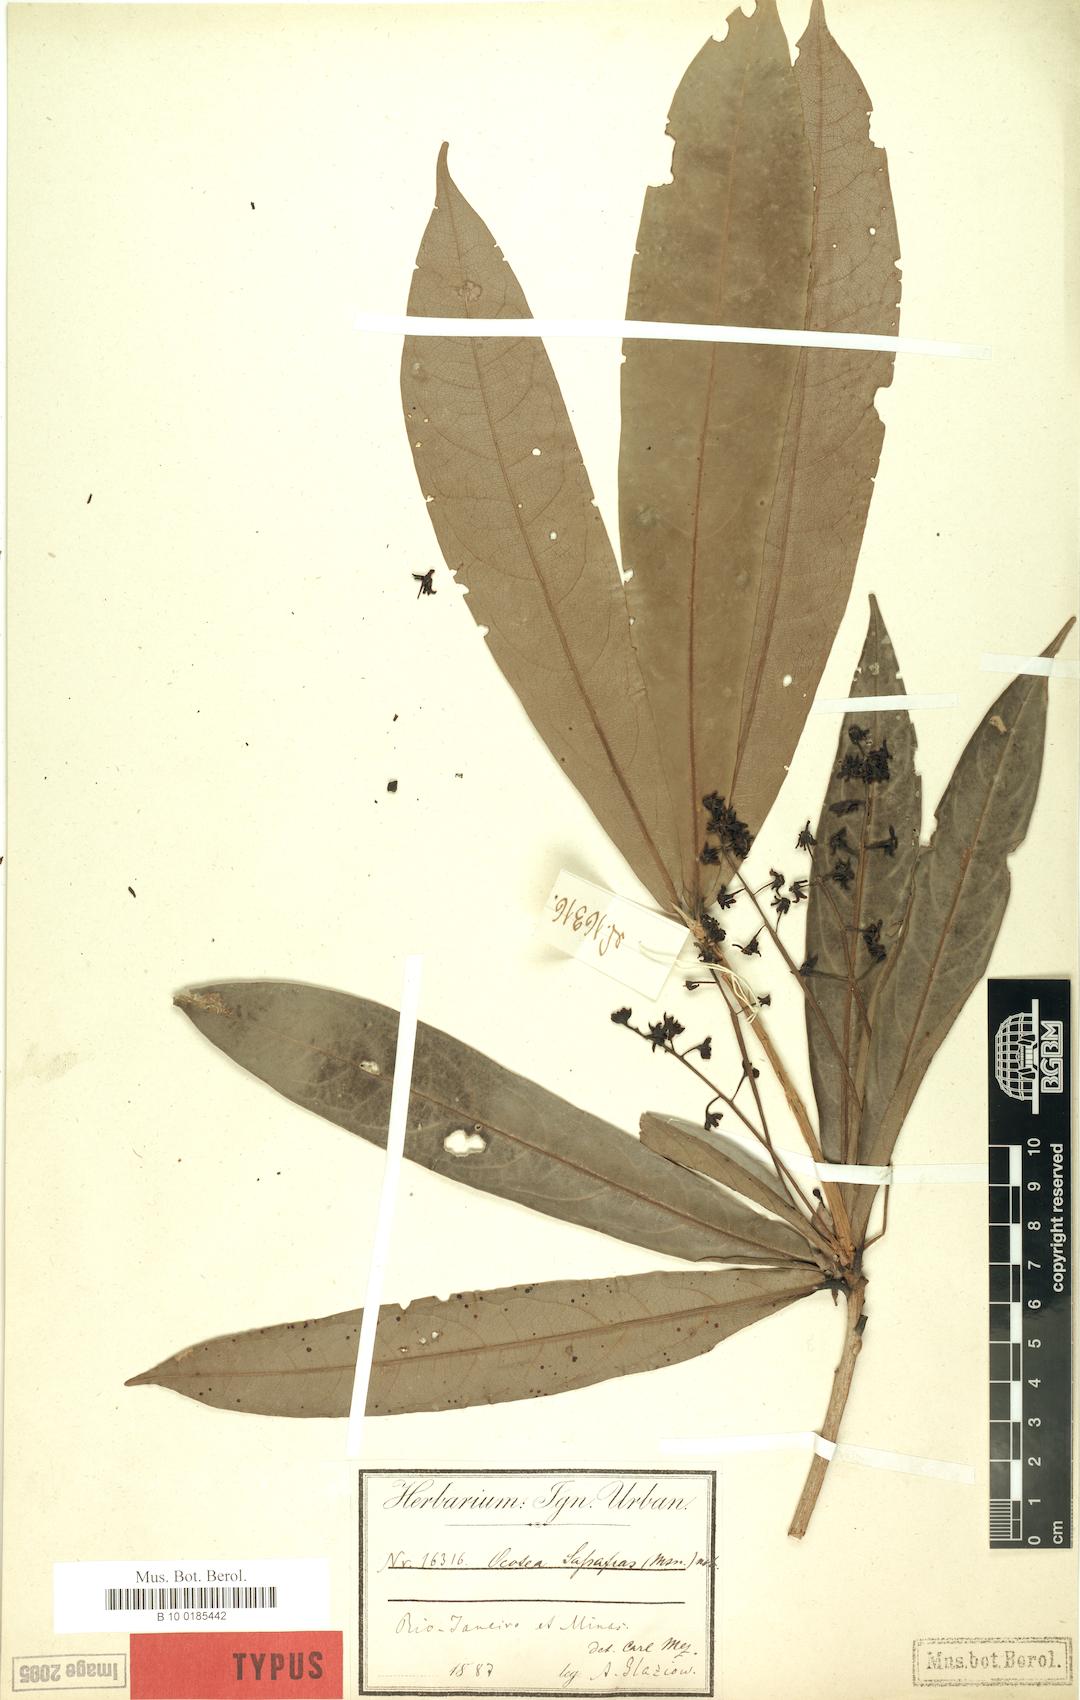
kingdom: Plantae
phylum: Tracheophyta
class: Magnoliopsida
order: Laurales
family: Lauraceae
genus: Mespilodaphne
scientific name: Mespilodaphne sassafras
